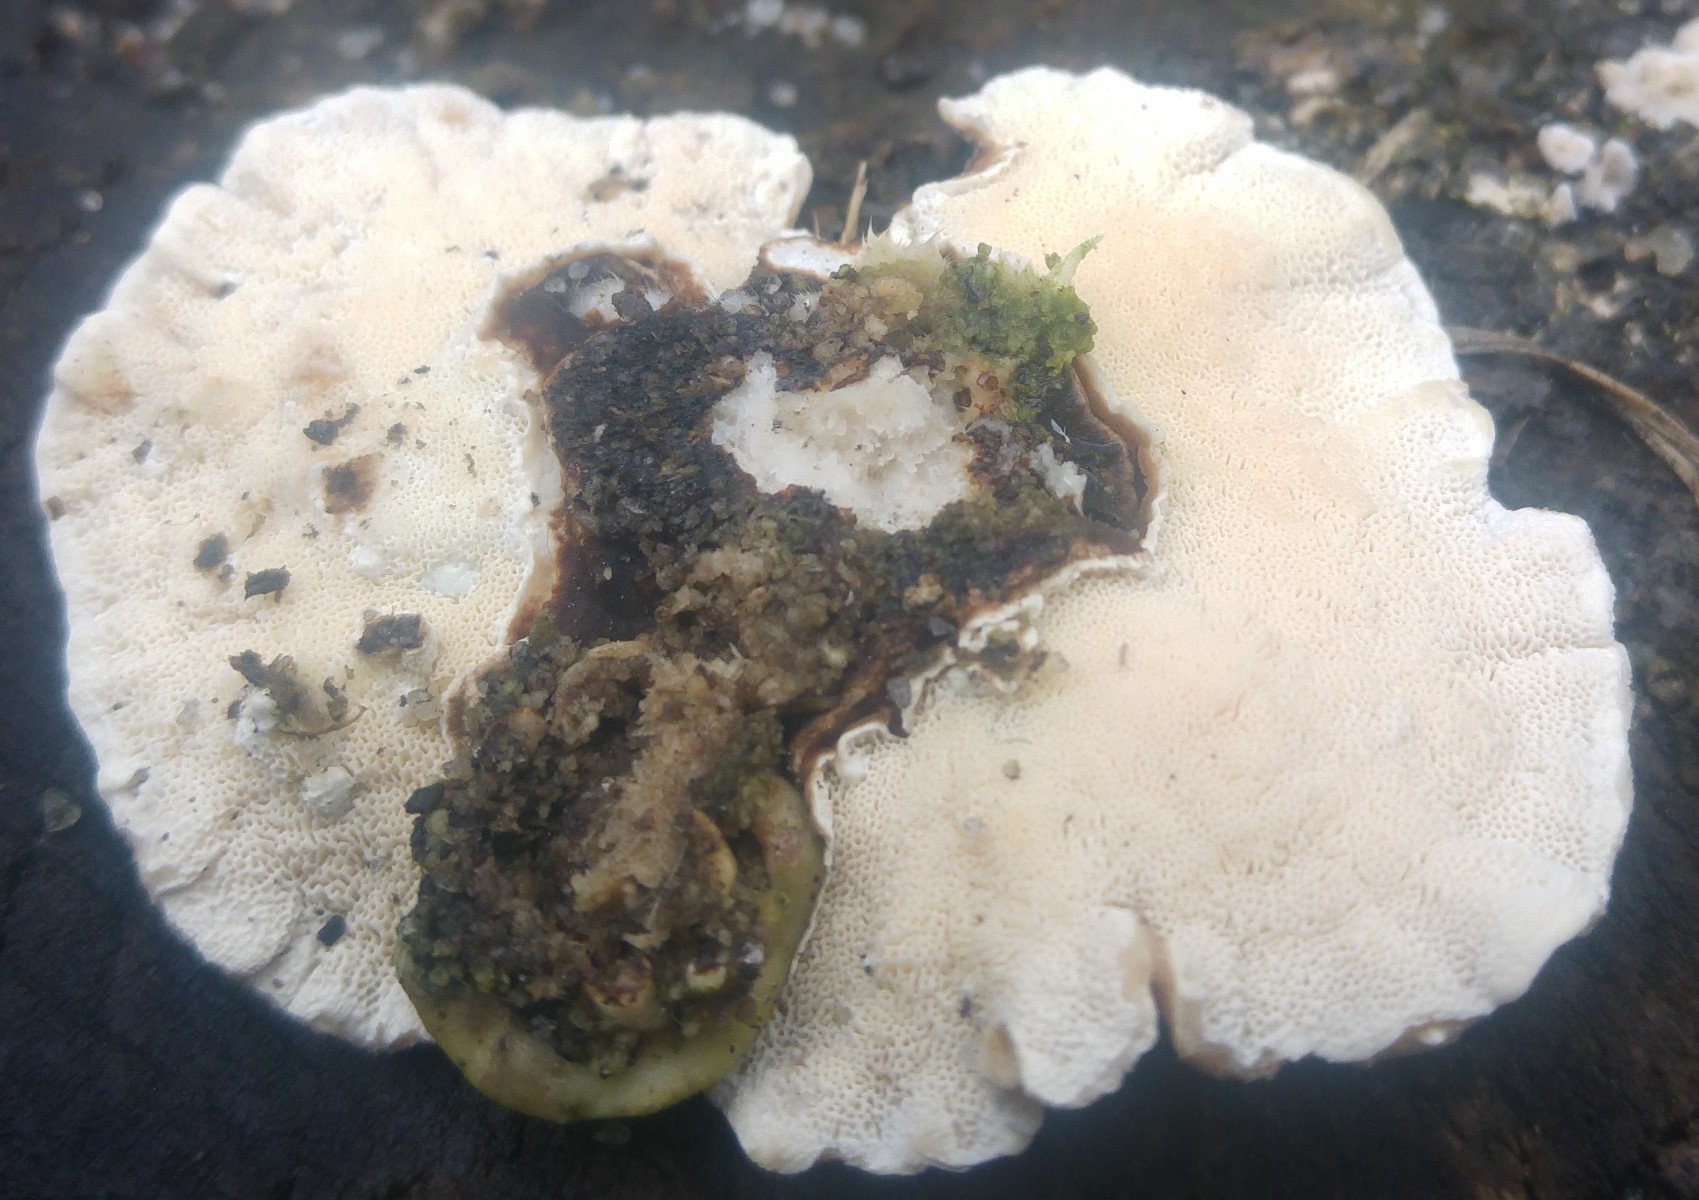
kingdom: Fungi
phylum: Basidiomycota
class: Agaricomycetes
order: Polyporales
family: Polyporaceae
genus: Trametes
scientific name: Trametes versicolor
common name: broget læderporesvamp
